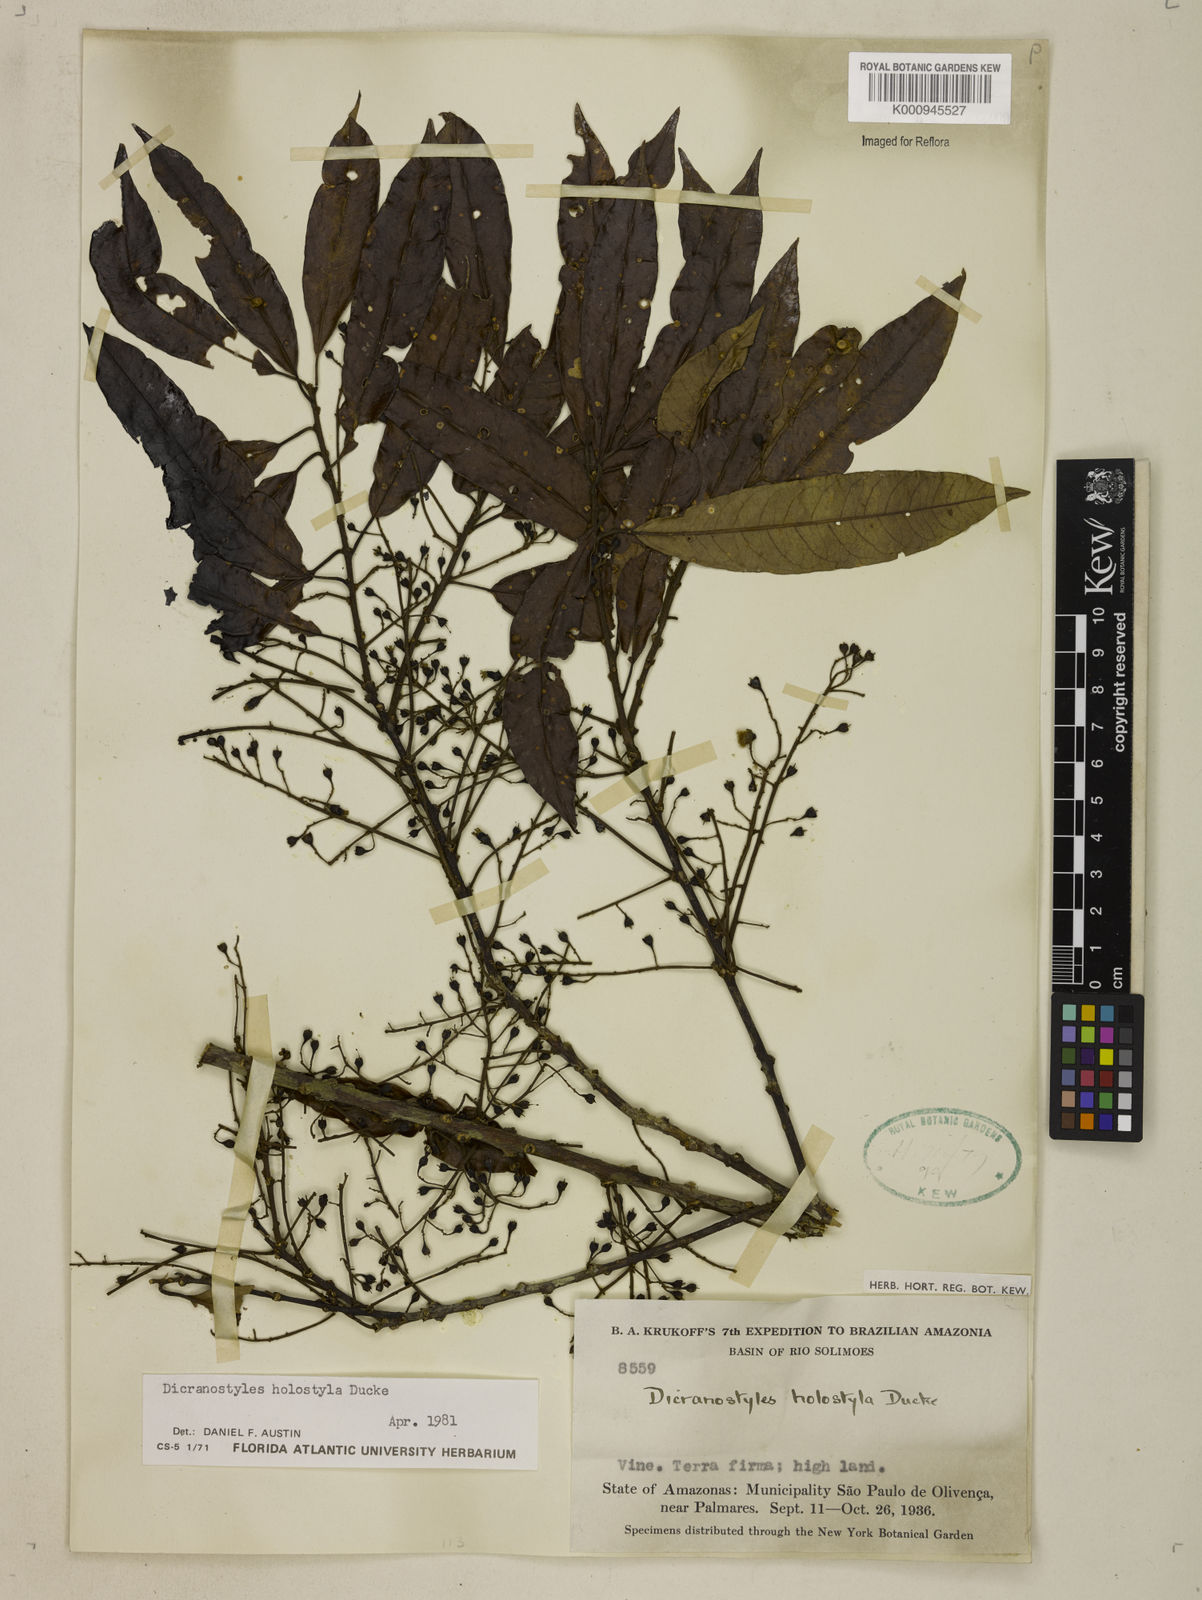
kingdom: Plantae
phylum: Tracheophyta
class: Magnoliopsida
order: Solanales
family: Convolvulaceae
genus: Dicranostyles
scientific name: Dicranostyles holostyla
